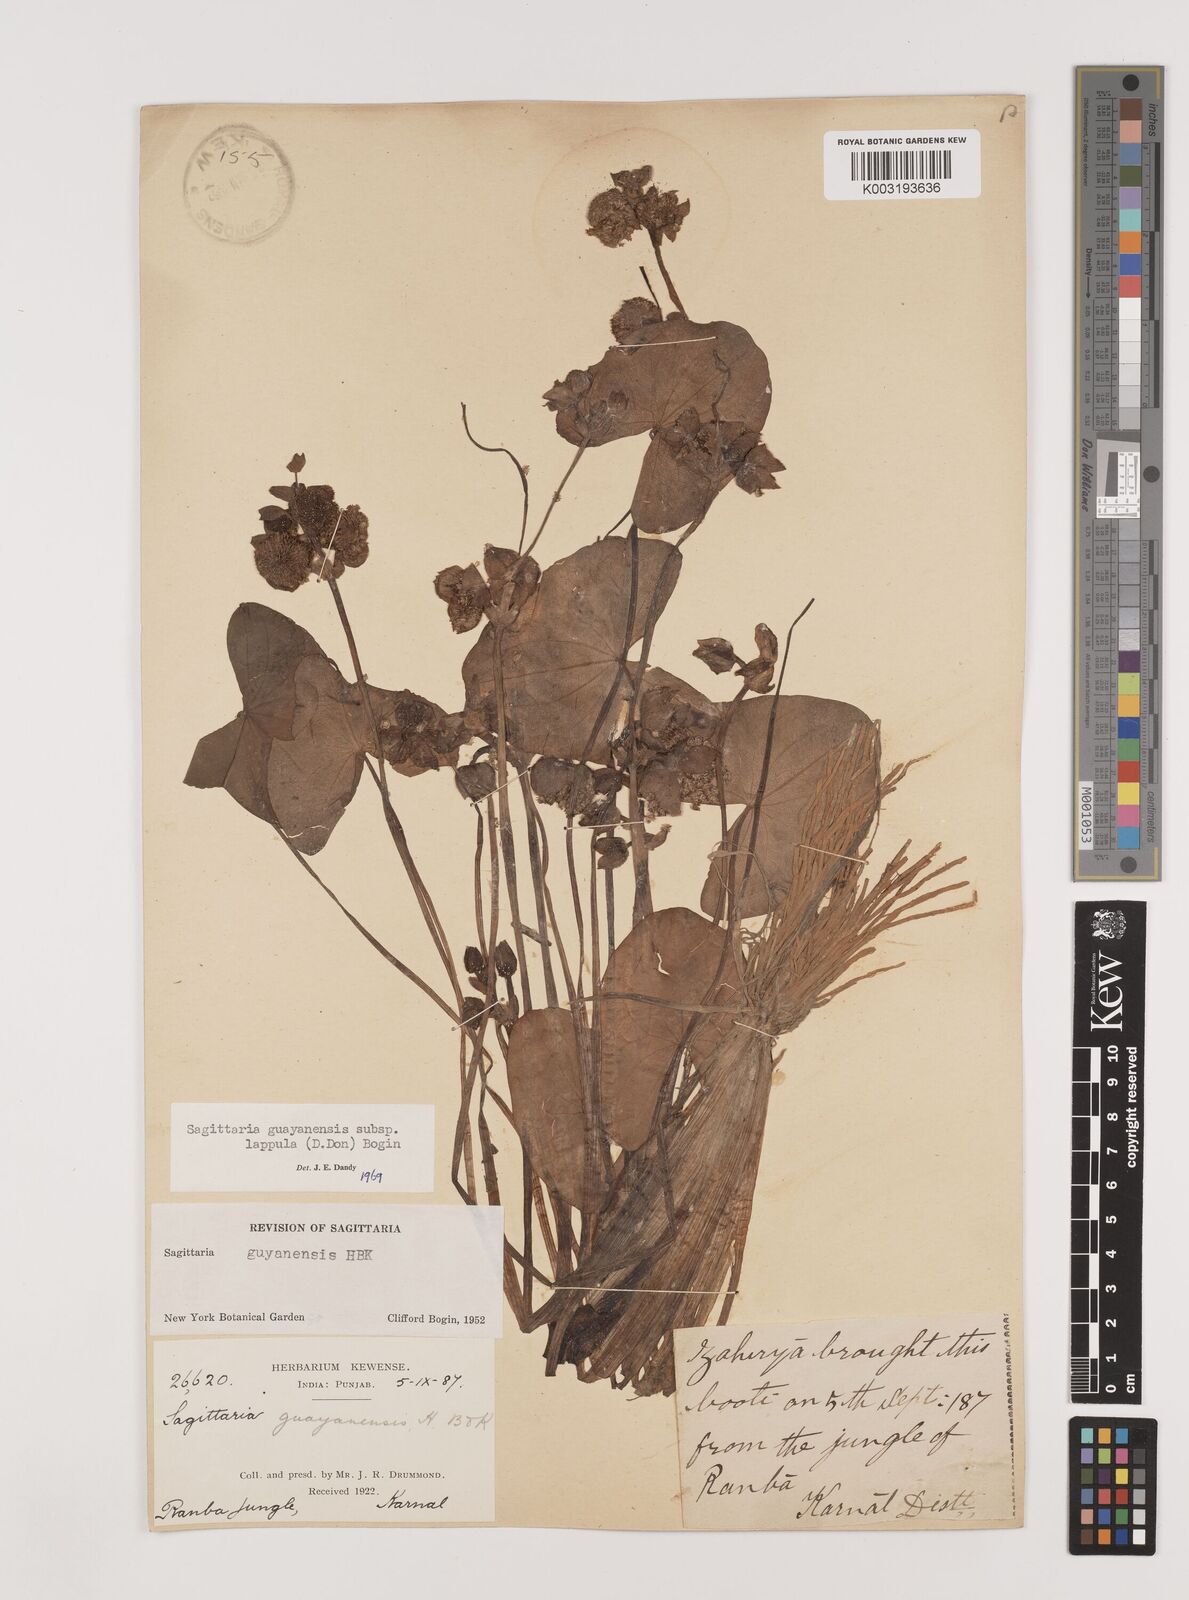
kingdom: Plantae
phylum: Tracheophyta
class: Liliopsida
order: Alismatales
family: Alismataceae
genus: Sagittaria
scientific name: Sagittaria guayanensis
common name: Guyanese arrowhead
